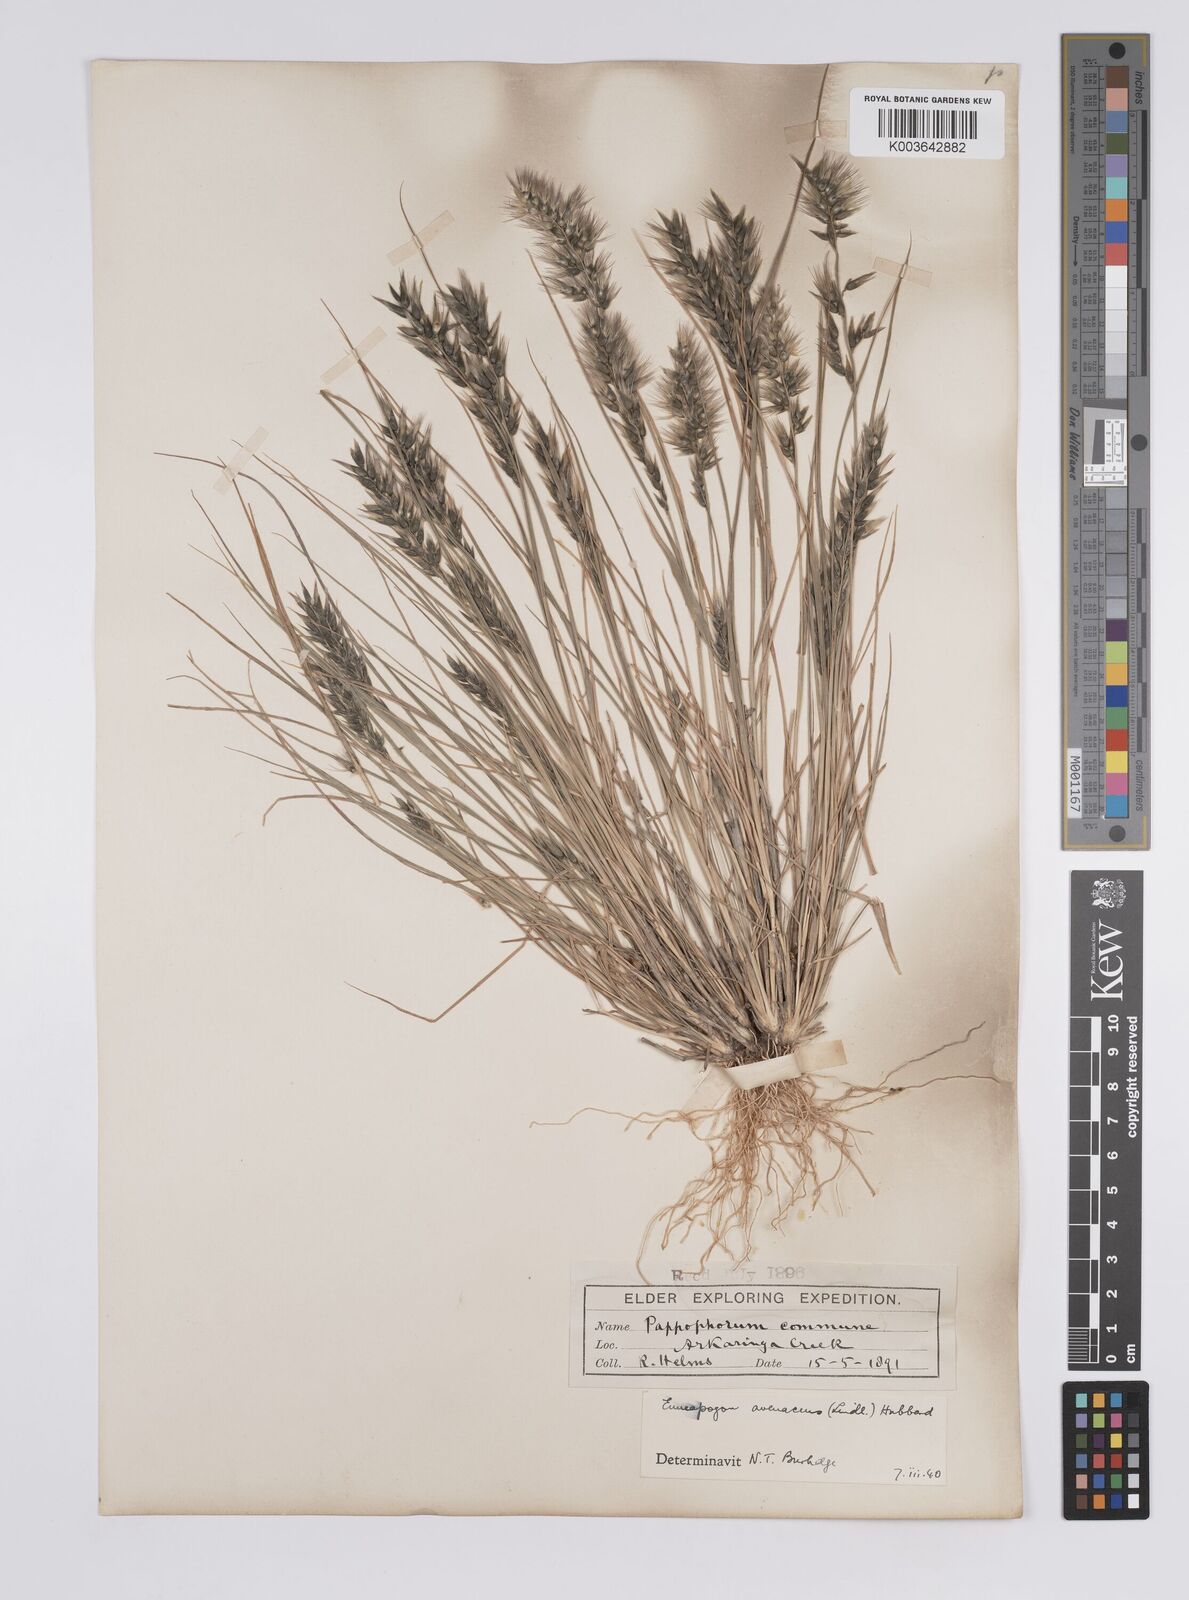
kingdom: Plantae
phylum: Tracheophyta
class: Liliopsida
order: Poales
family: Poaceae
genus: Enneapogon
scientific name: Enneapogon avenaceus
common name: Hairy oat grass
